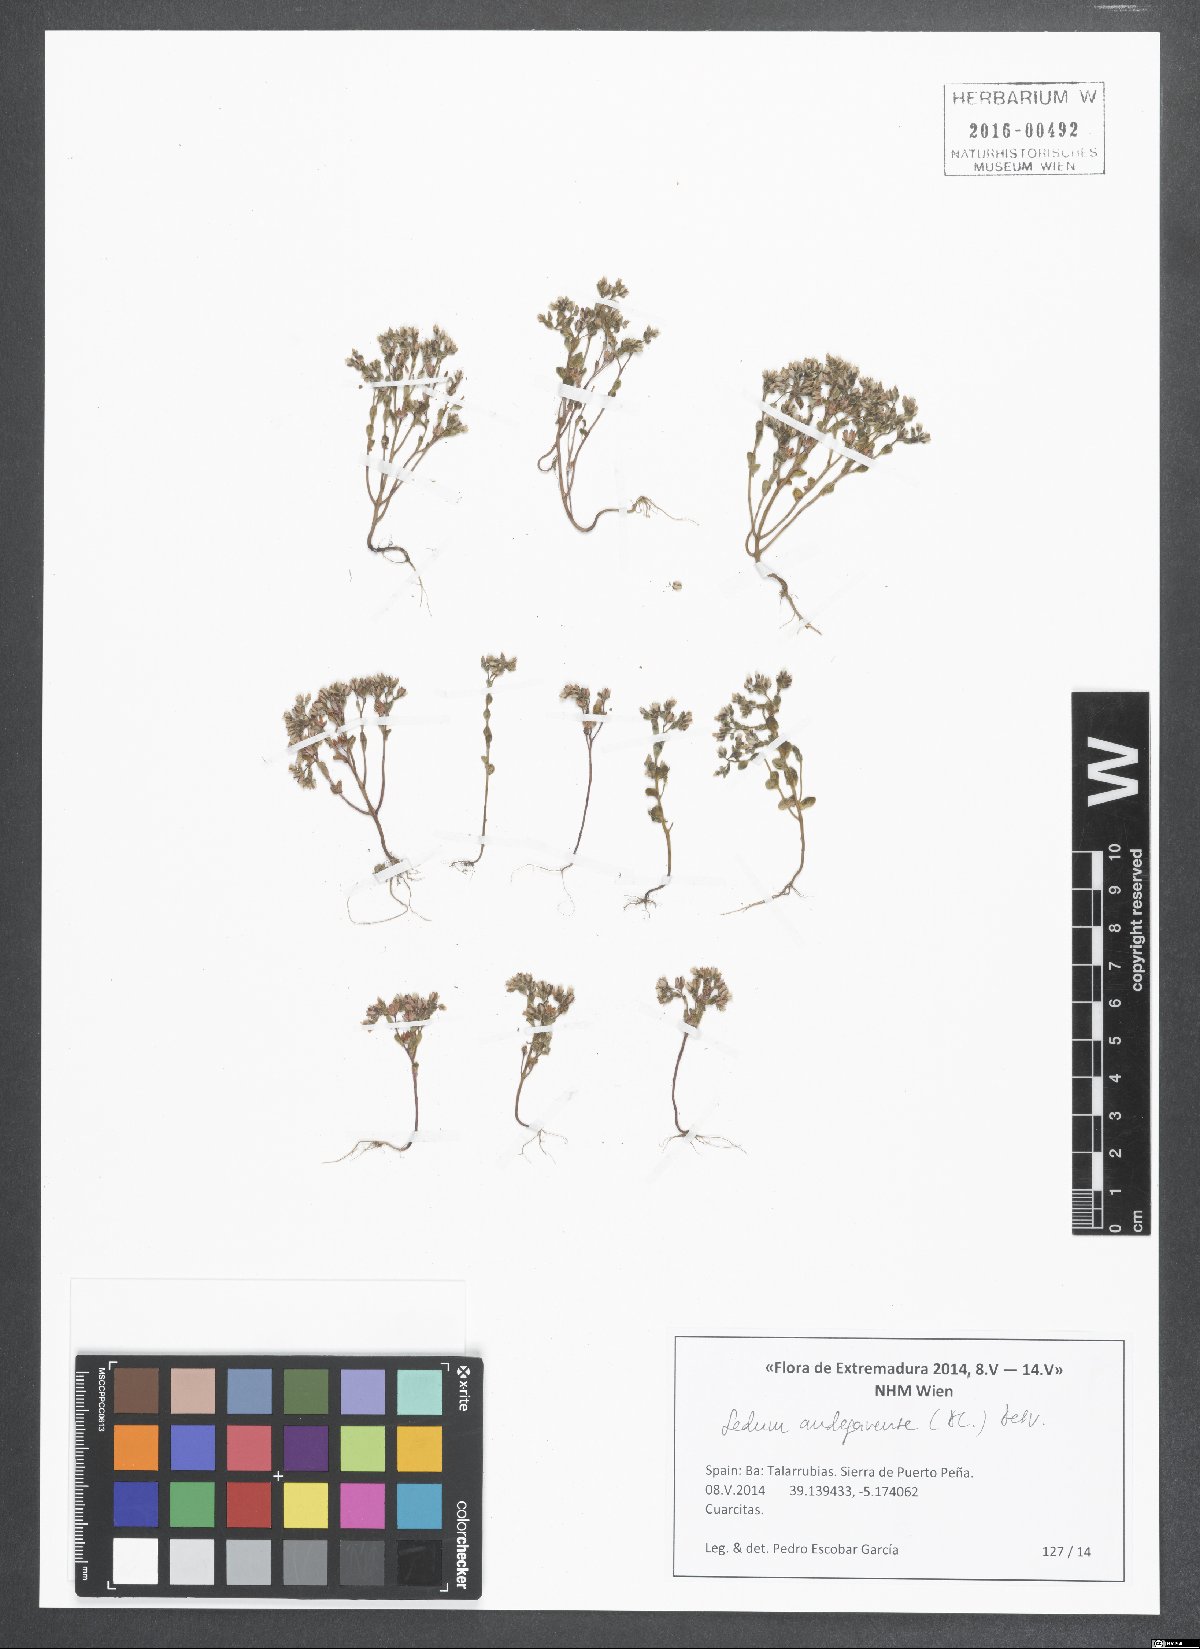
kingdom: Plantae
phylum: Tracheophyta
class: Magnoliopsida
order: Saxifragales
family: Crassulaceae
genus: Sedum
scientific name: Sedum andegavense
